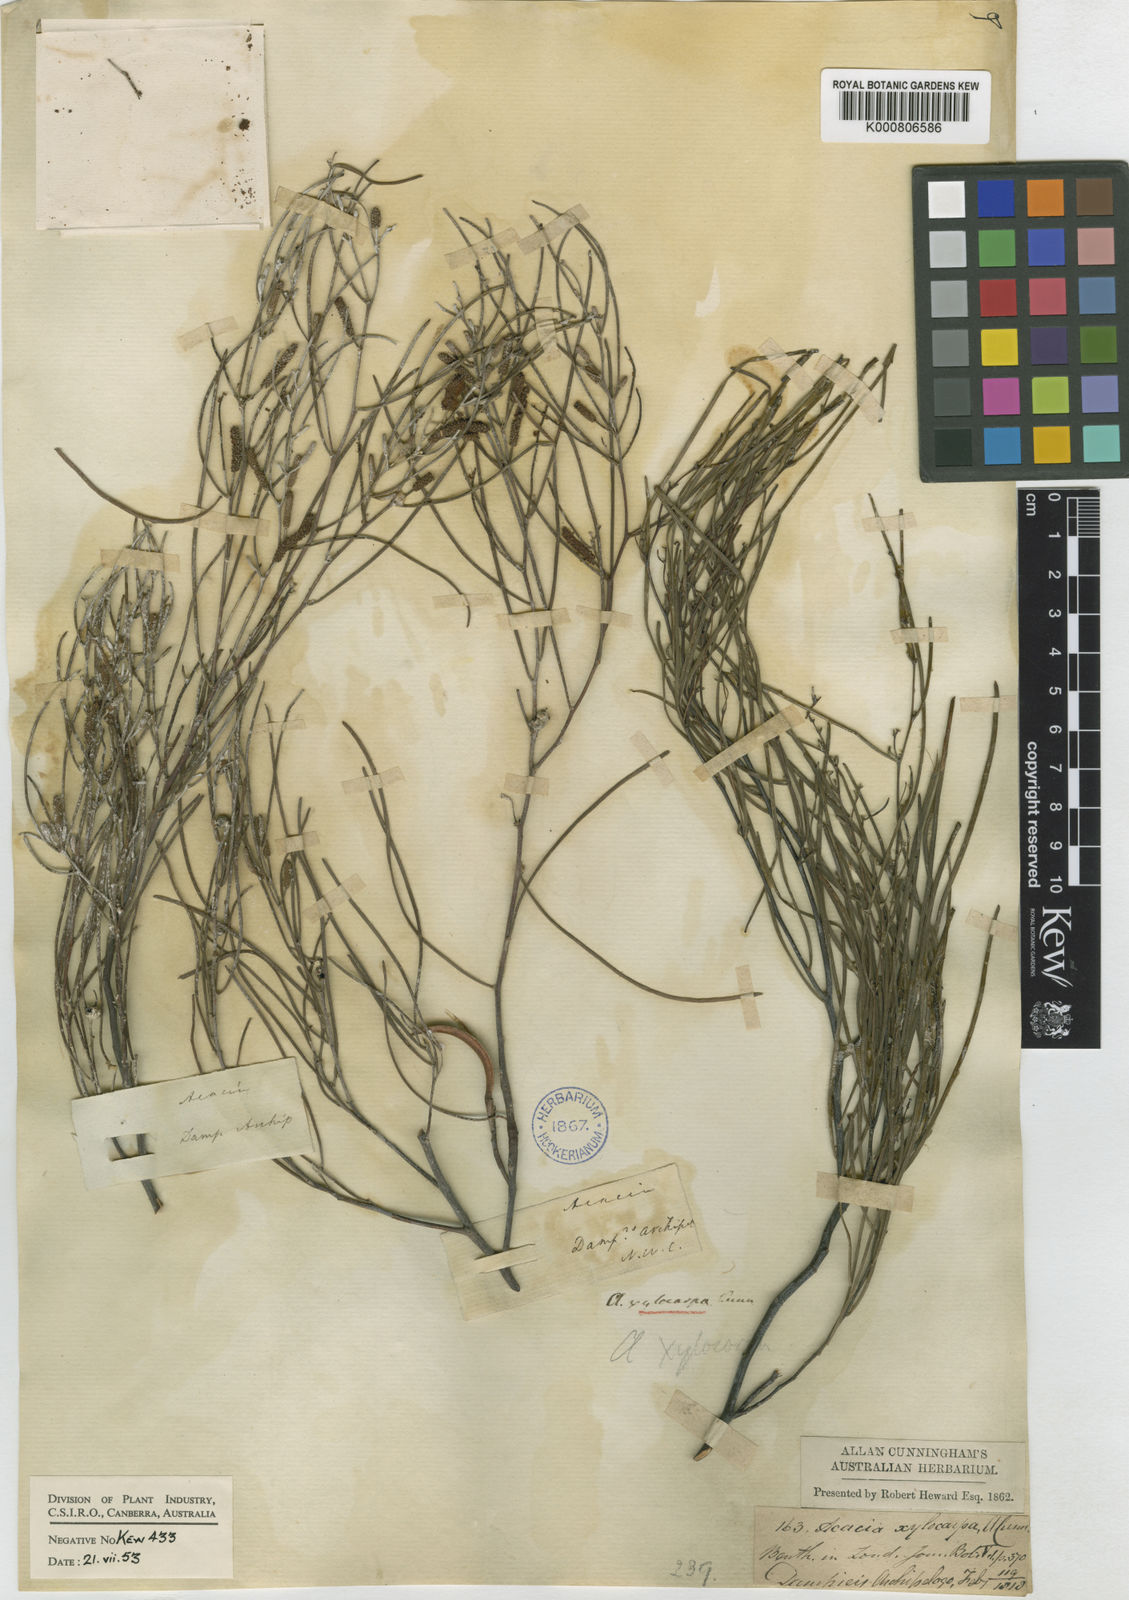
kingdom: Plantae
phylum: Tracheophyta
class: Magnoliopsida
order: Fabales
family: Fabaceae
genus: Acacia
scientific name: Acacia
